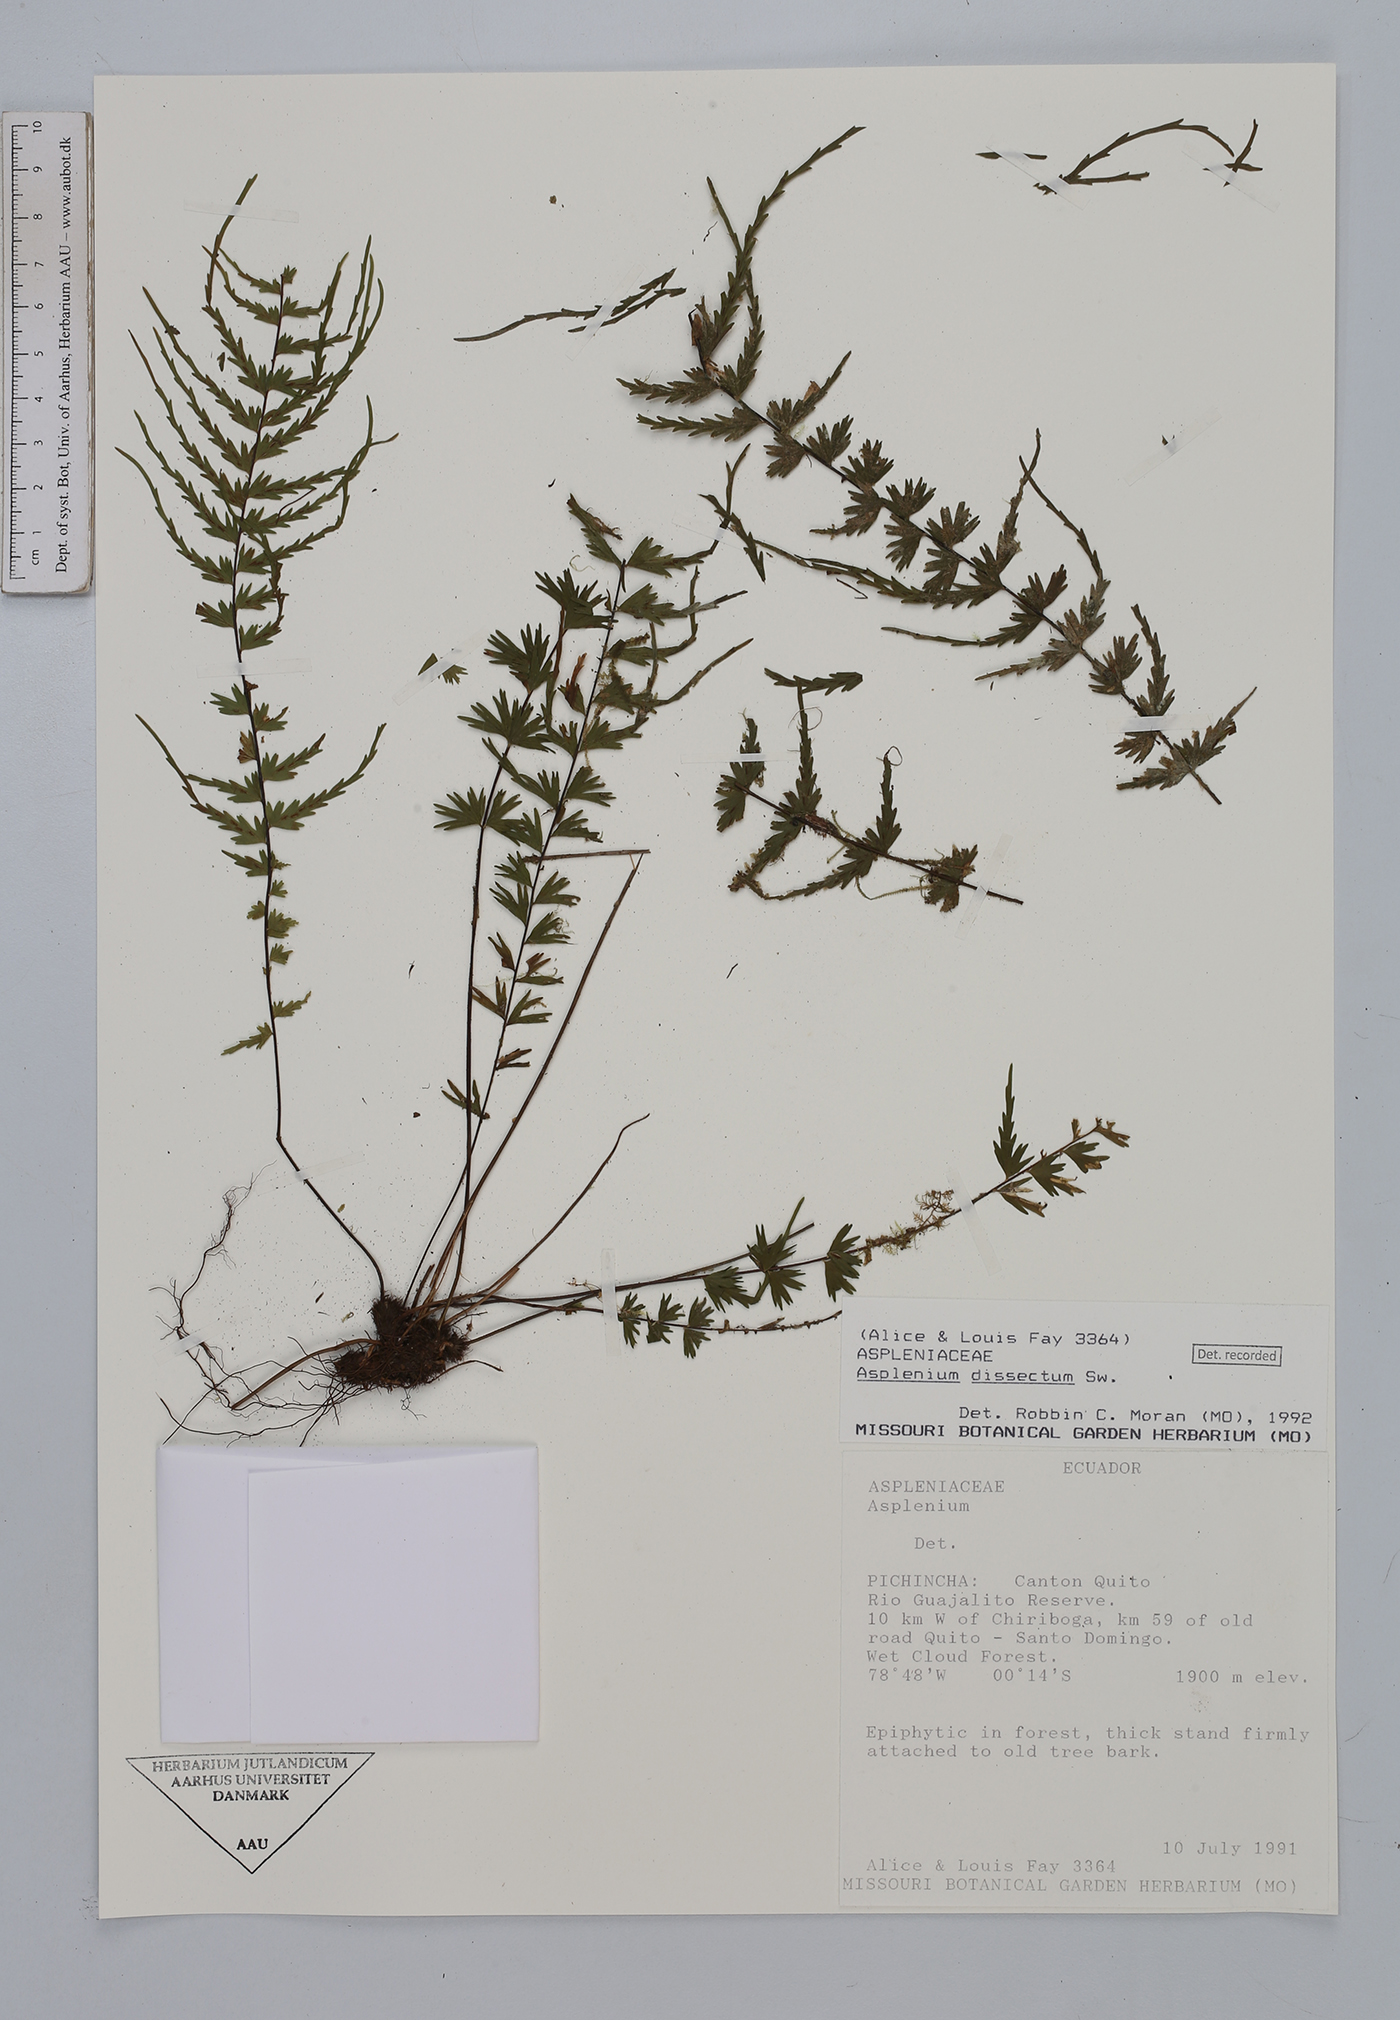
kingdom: Plantae
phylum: Tracheophyta
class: Polypodiopsida
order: Polypodiales
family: Aspleniaceae
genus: Asplenium
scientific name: Asplenium dissectum
